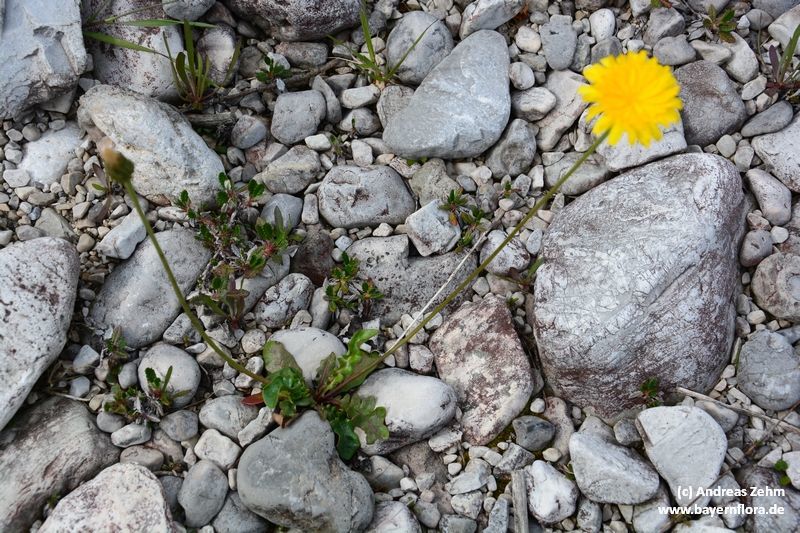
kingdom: Plantae
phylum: Tracheophyta
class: Magnoliopsida
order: Asterales
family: Asteraceae
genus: Leontodon
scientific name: Leontodon hyoseroides
